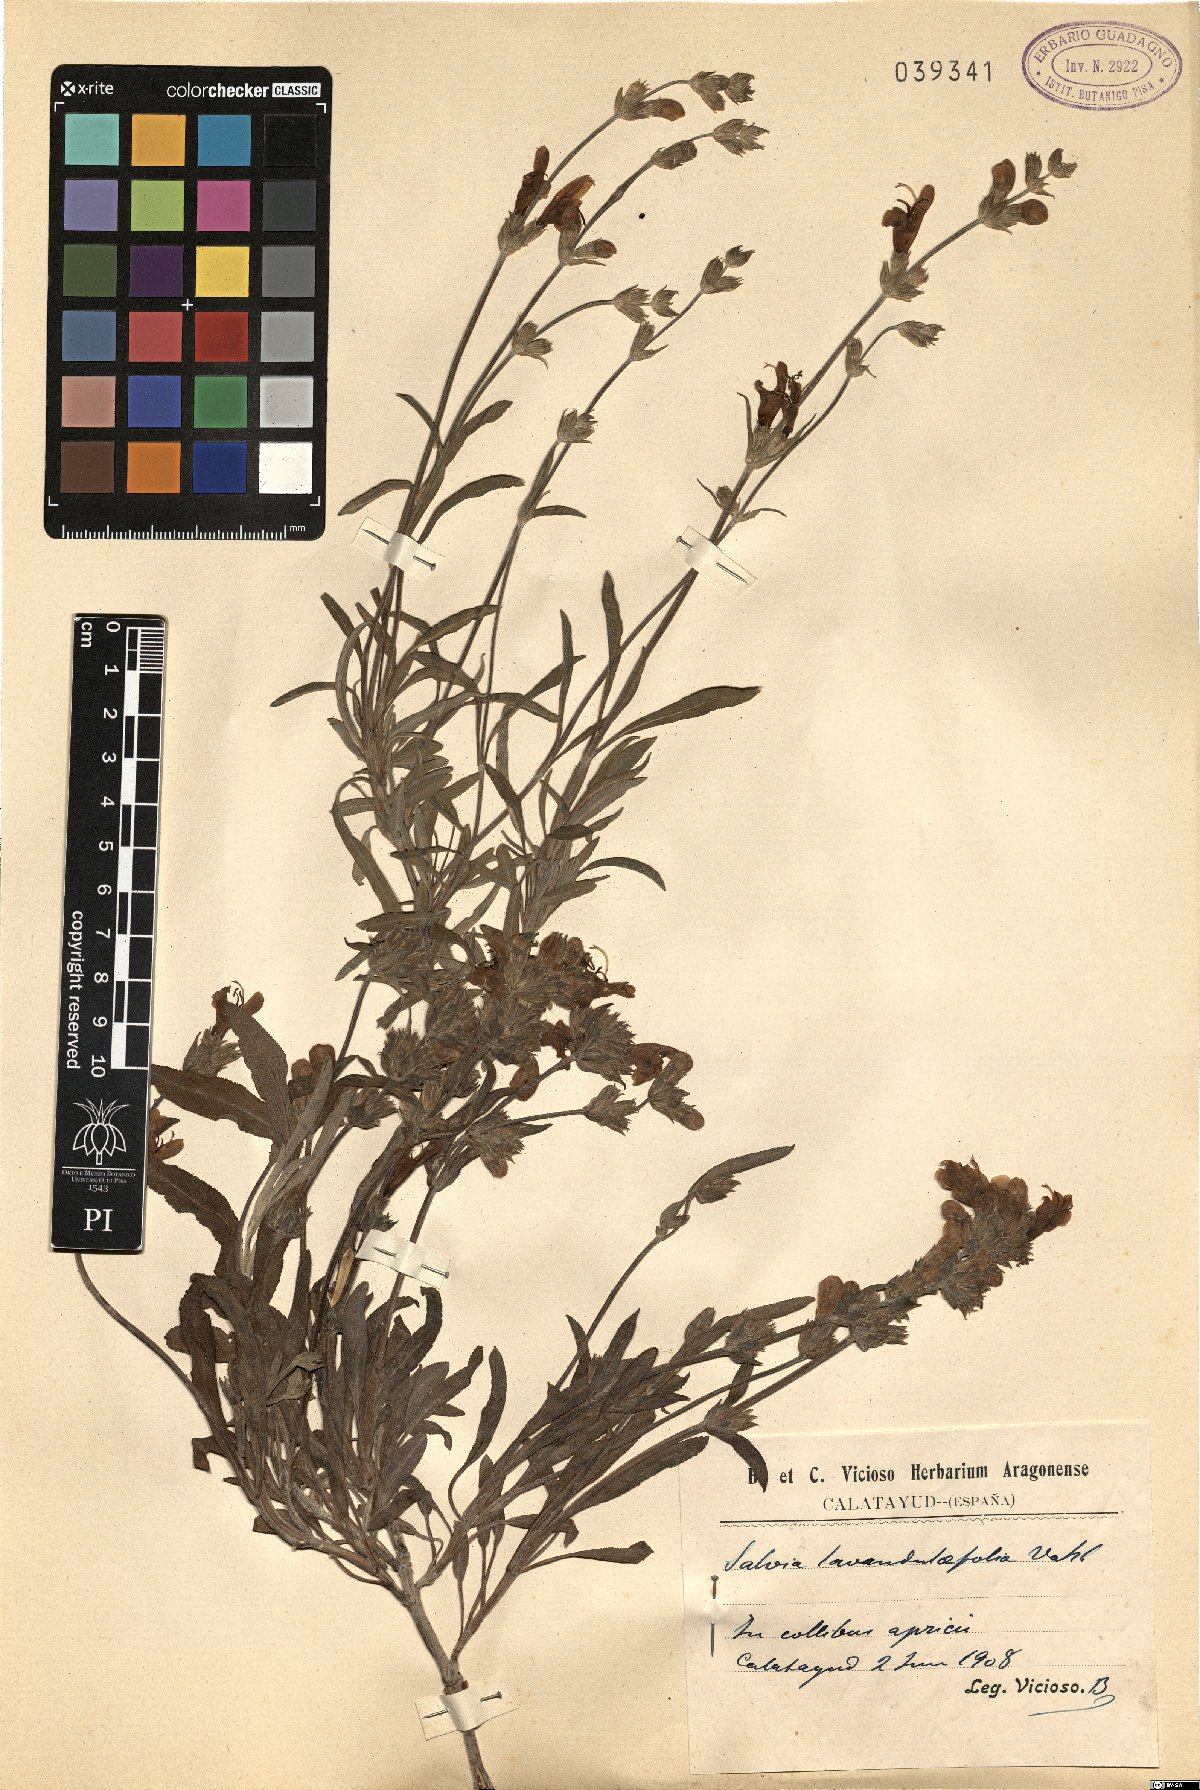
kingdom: Plantae
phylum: Tracheophyta
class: Magnoliopsida
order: Lamiales
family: Lamiaceae
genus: Salvia
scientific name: Salvia officinalis
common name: Sage
